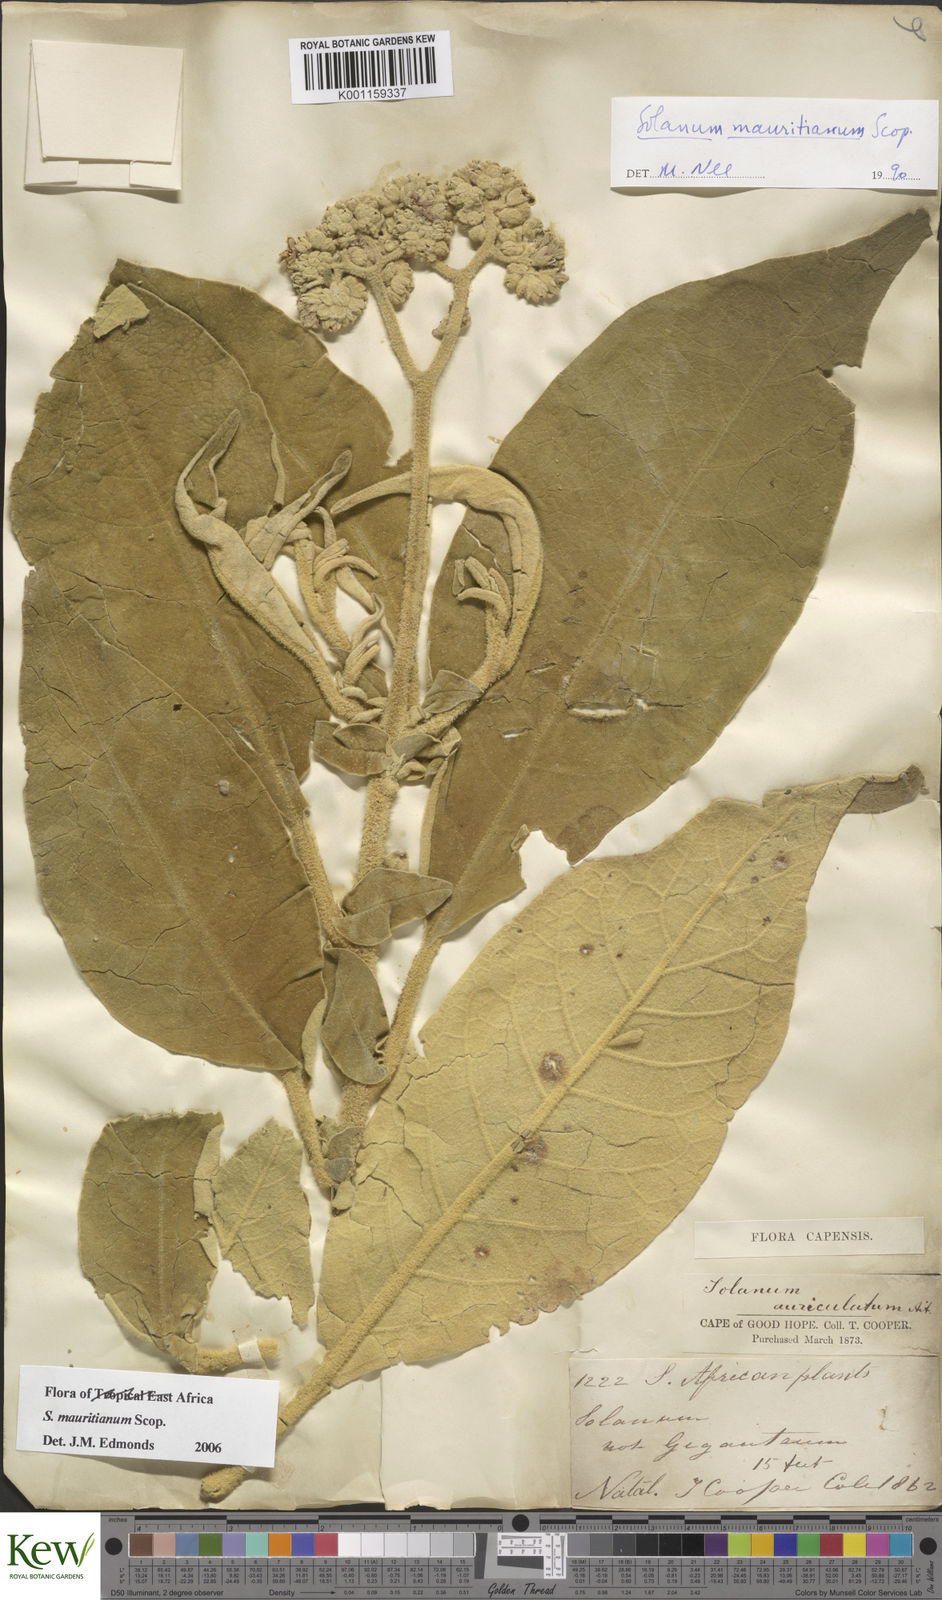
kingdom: Plantae
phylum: Tracheophyta
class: Magnoliopsida
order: Solanales
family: Solanaceae
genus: Solanum
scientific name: Solanum mauritianum
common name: Earleaf nightshade
